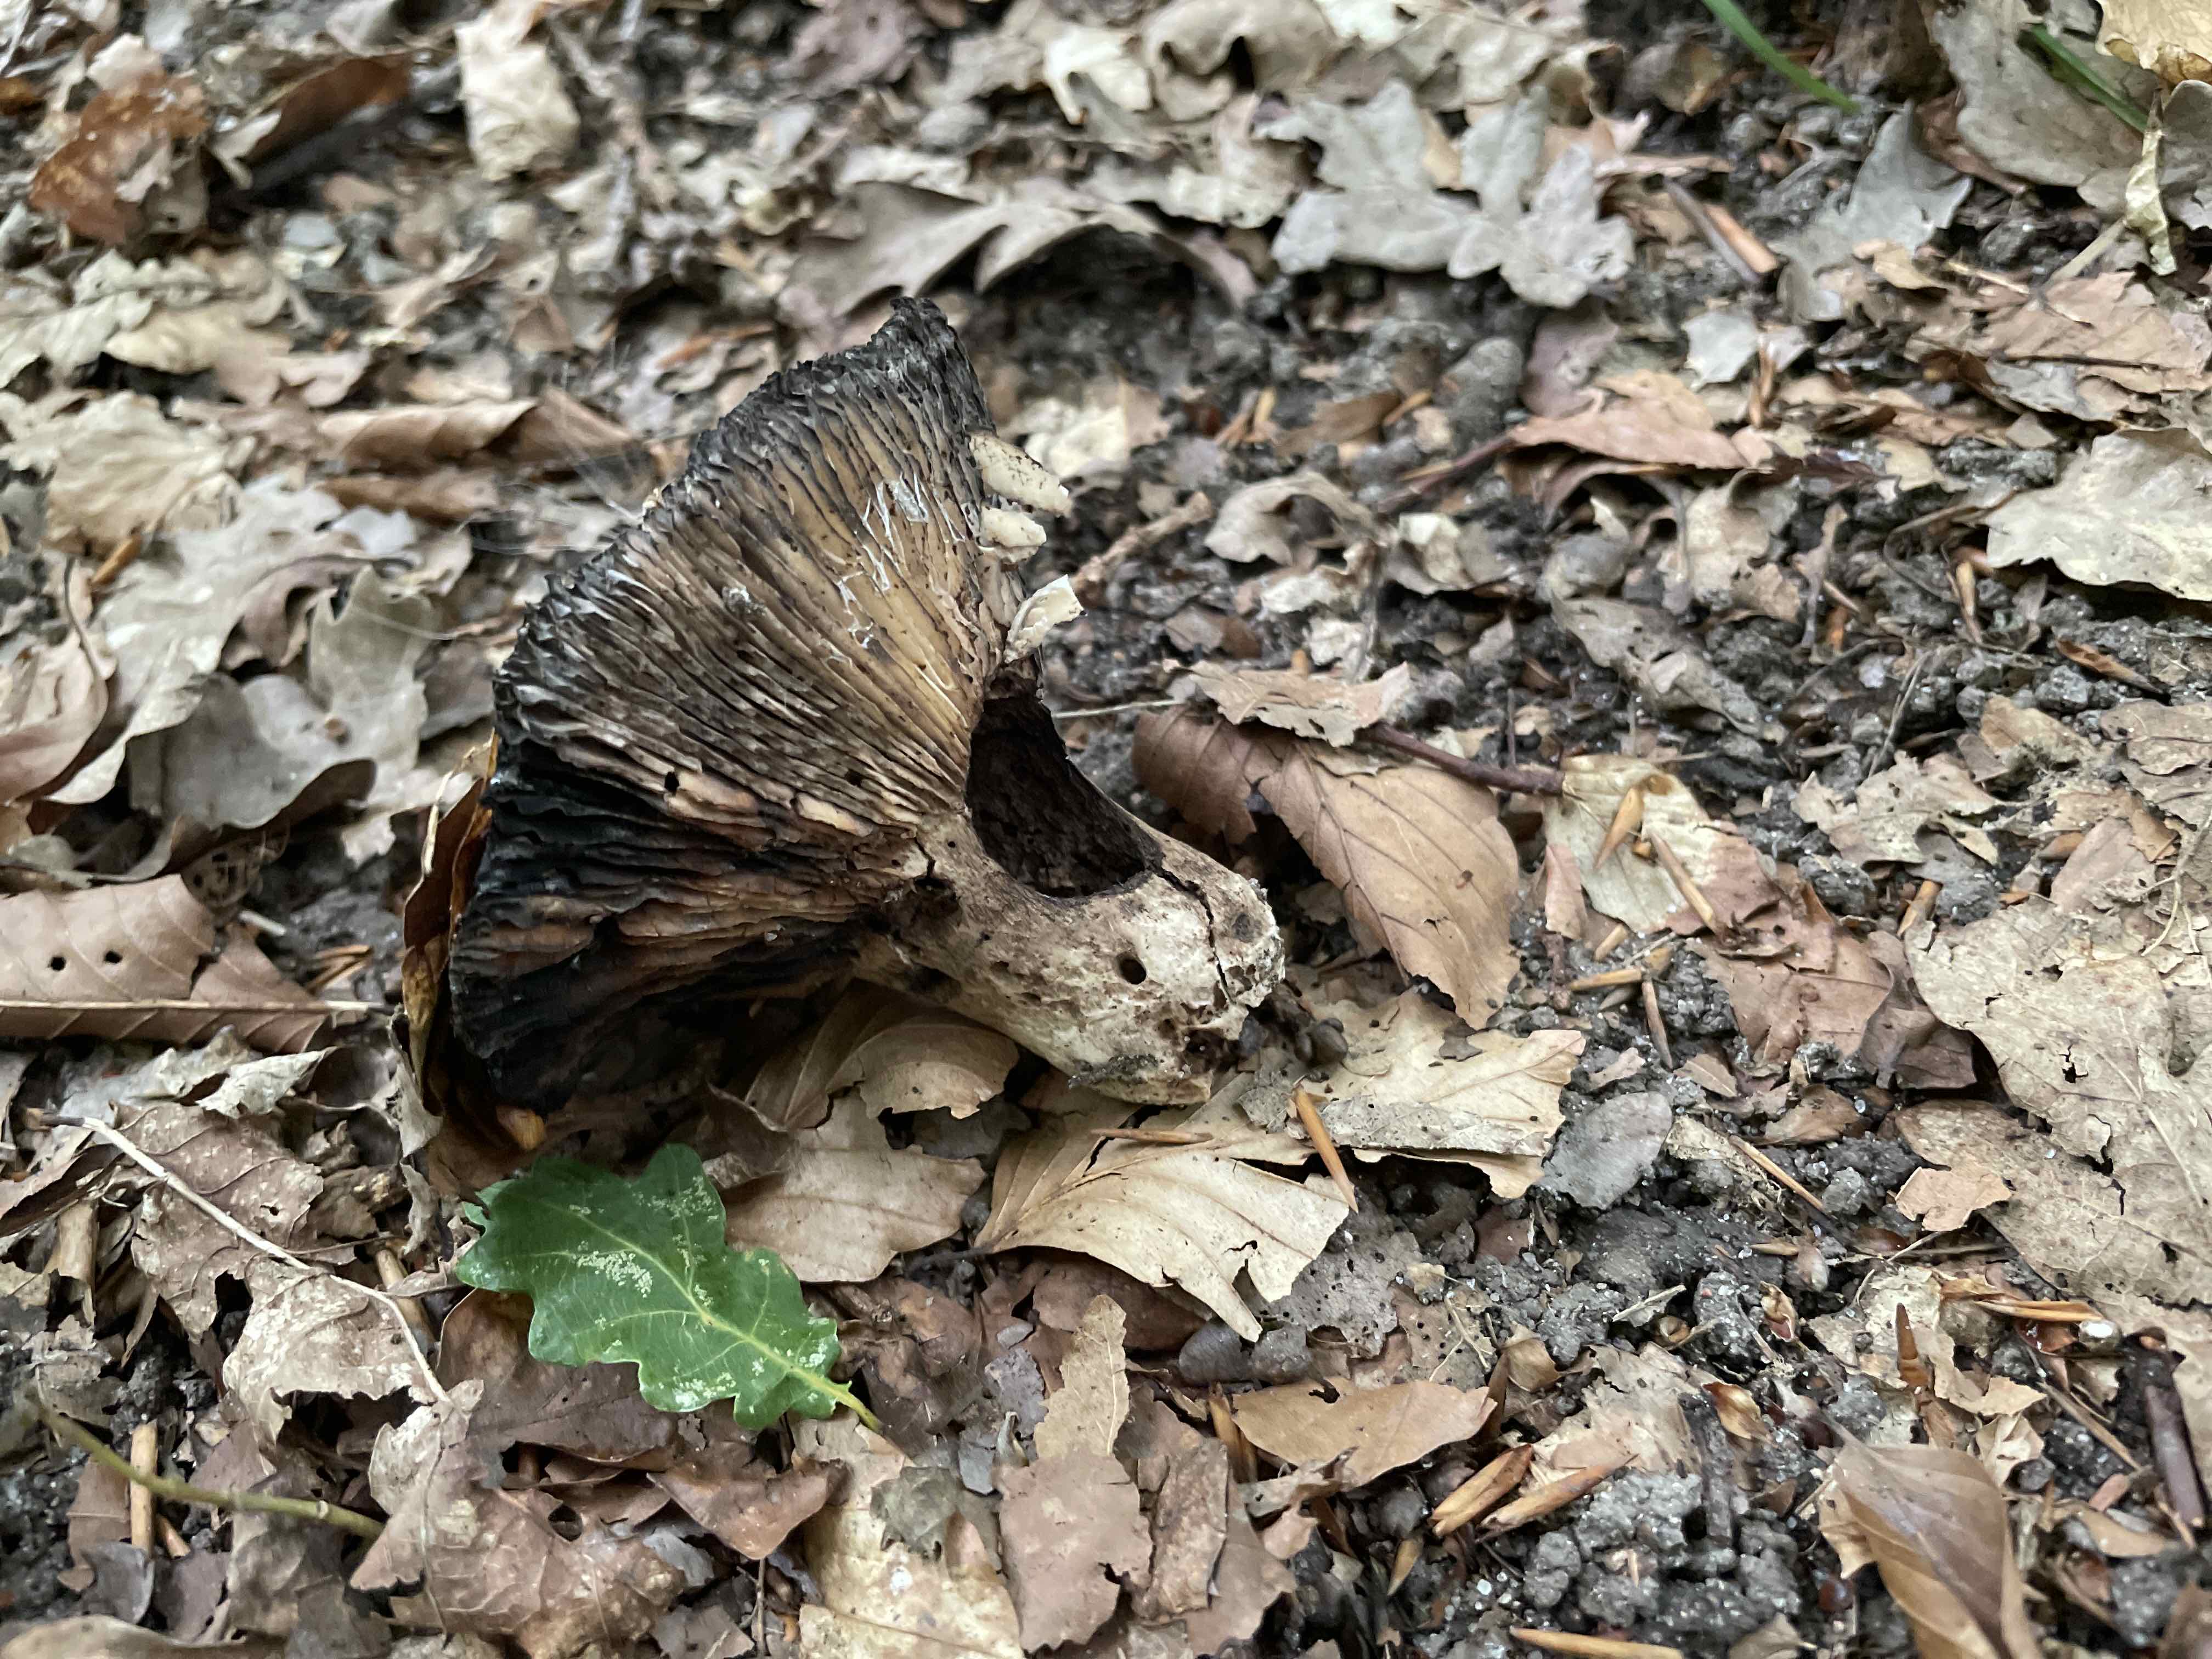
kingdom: Fungi
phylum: Basidiomycota
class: Agaricomycetes
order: Russulales
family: Russulaceae
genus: Russula
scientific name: Russula adusta
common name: sværtende skørhat
